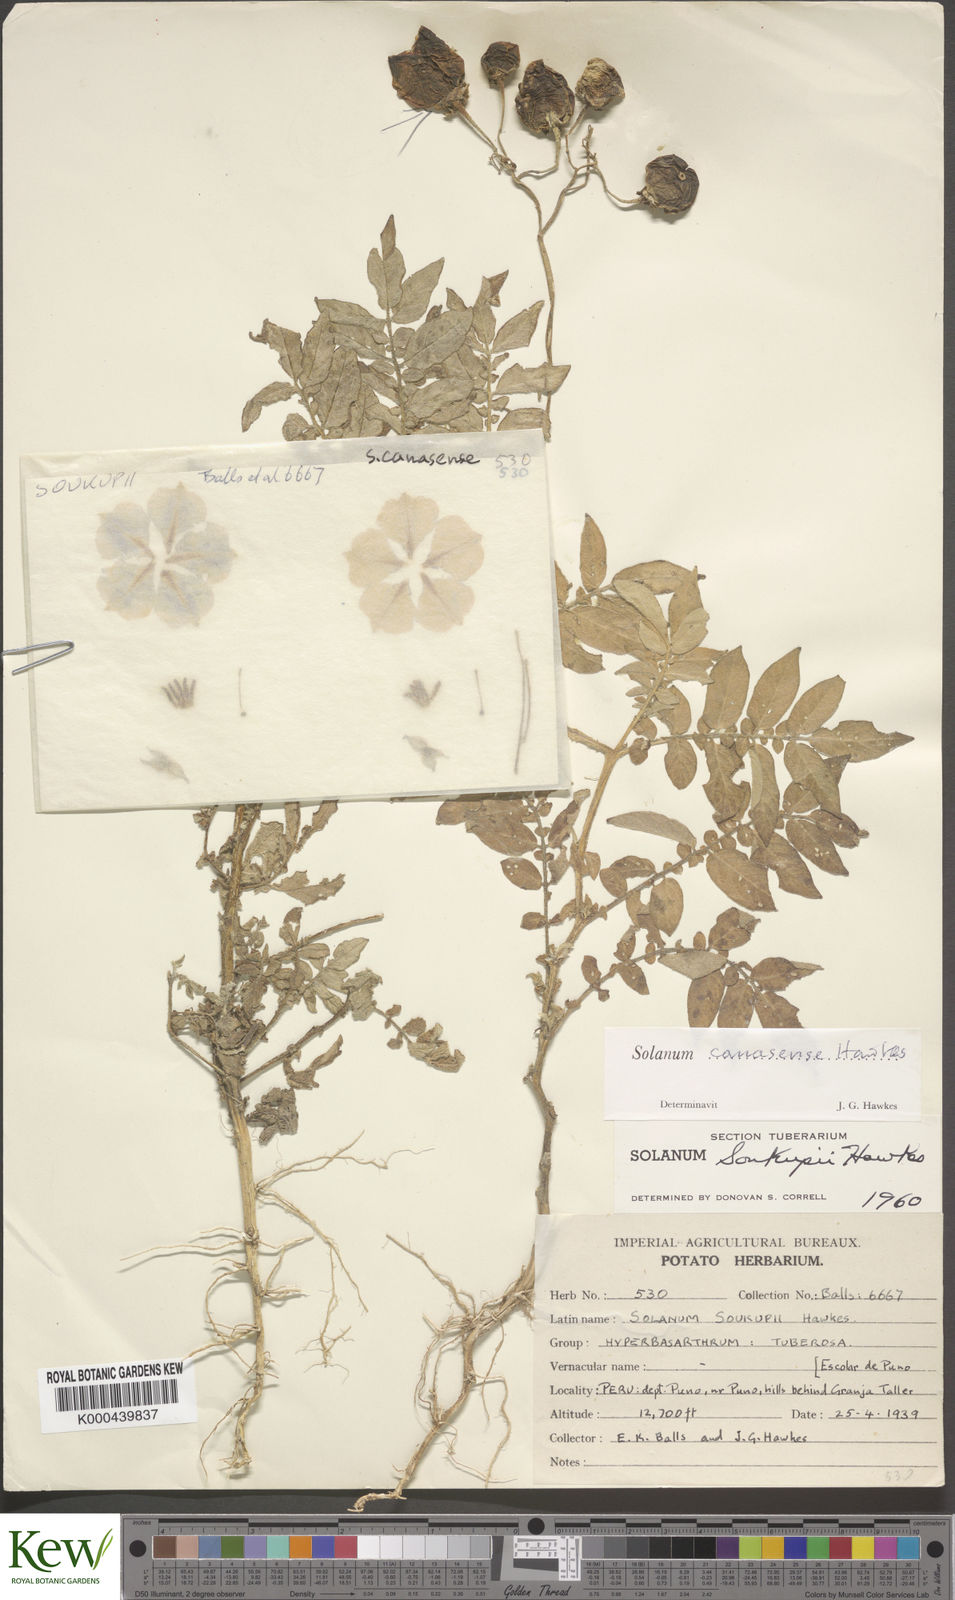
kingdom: Plantae
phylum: Tracheophyta
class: Magnoliopsida
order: Solanales
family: Solanaceae
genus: Solanum
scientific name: Solanum candolleanum
